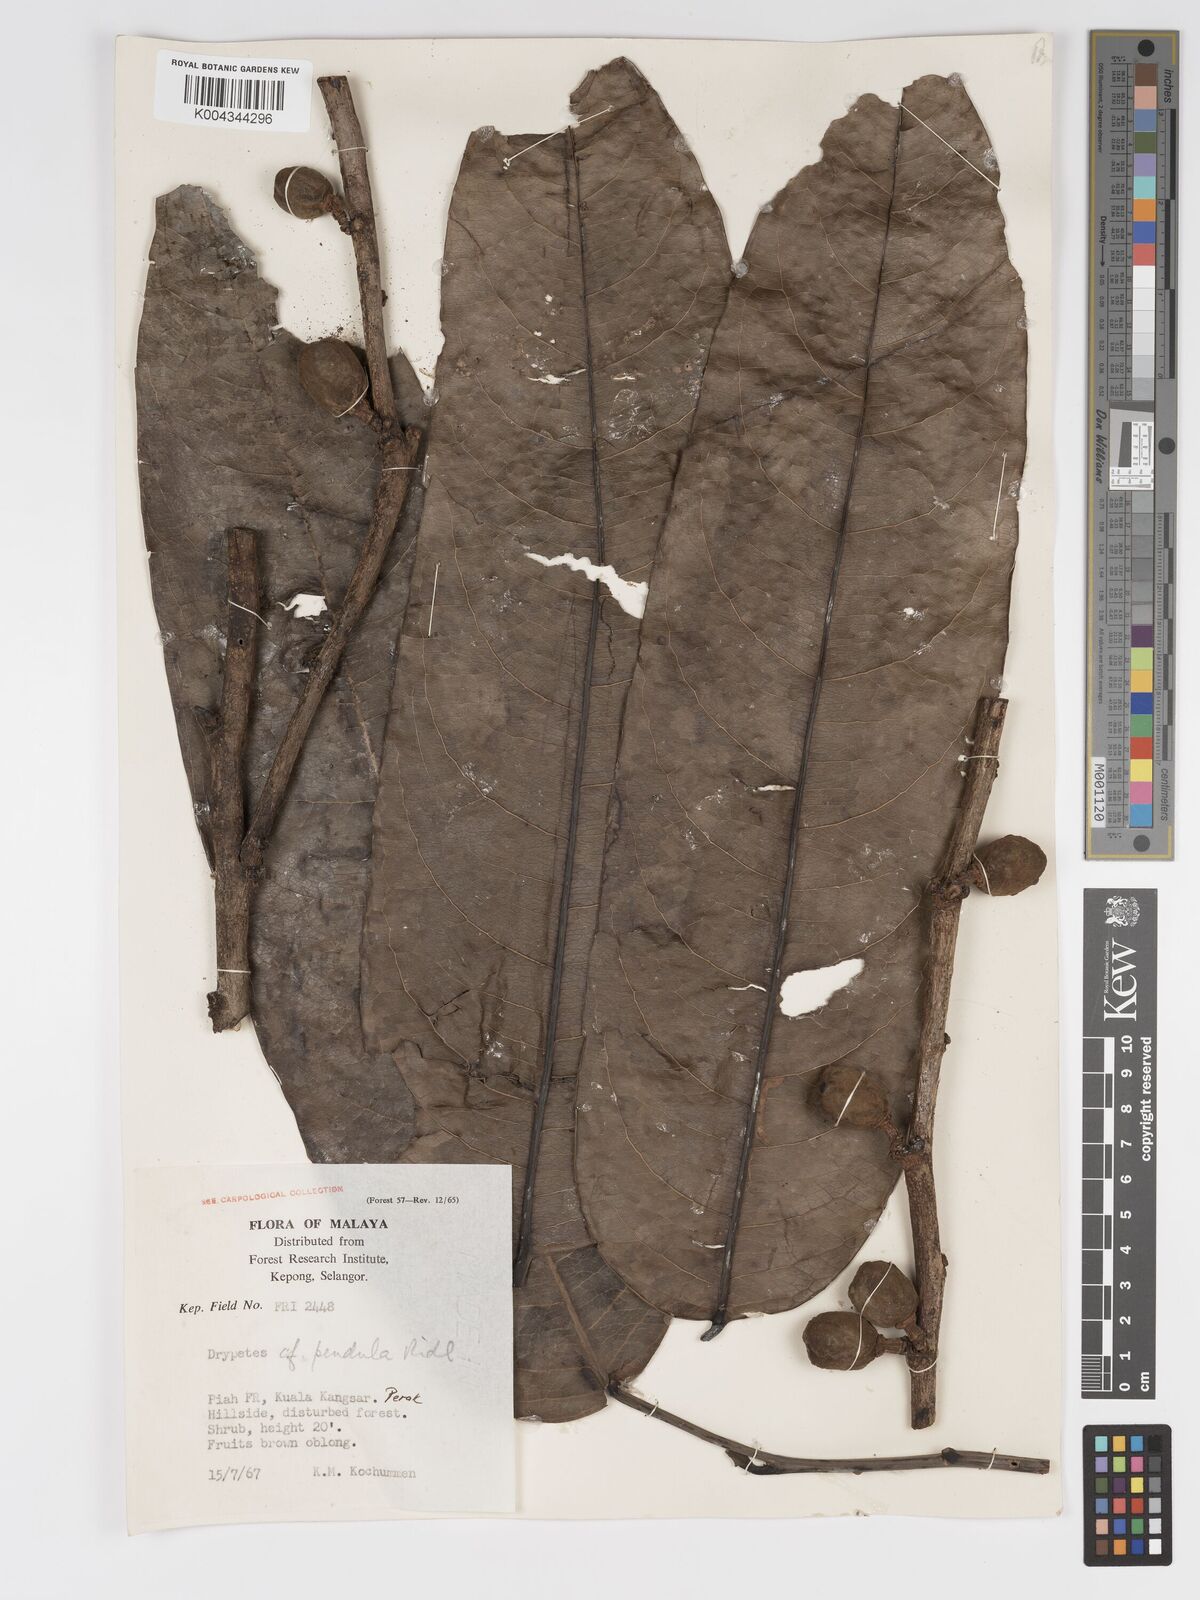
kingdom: Plantae
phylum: Tracheophyta
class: Magnoliopsida
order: Malpighiales
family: Putranjivaceae
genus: Drypetes
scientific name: Drypetes pendula
